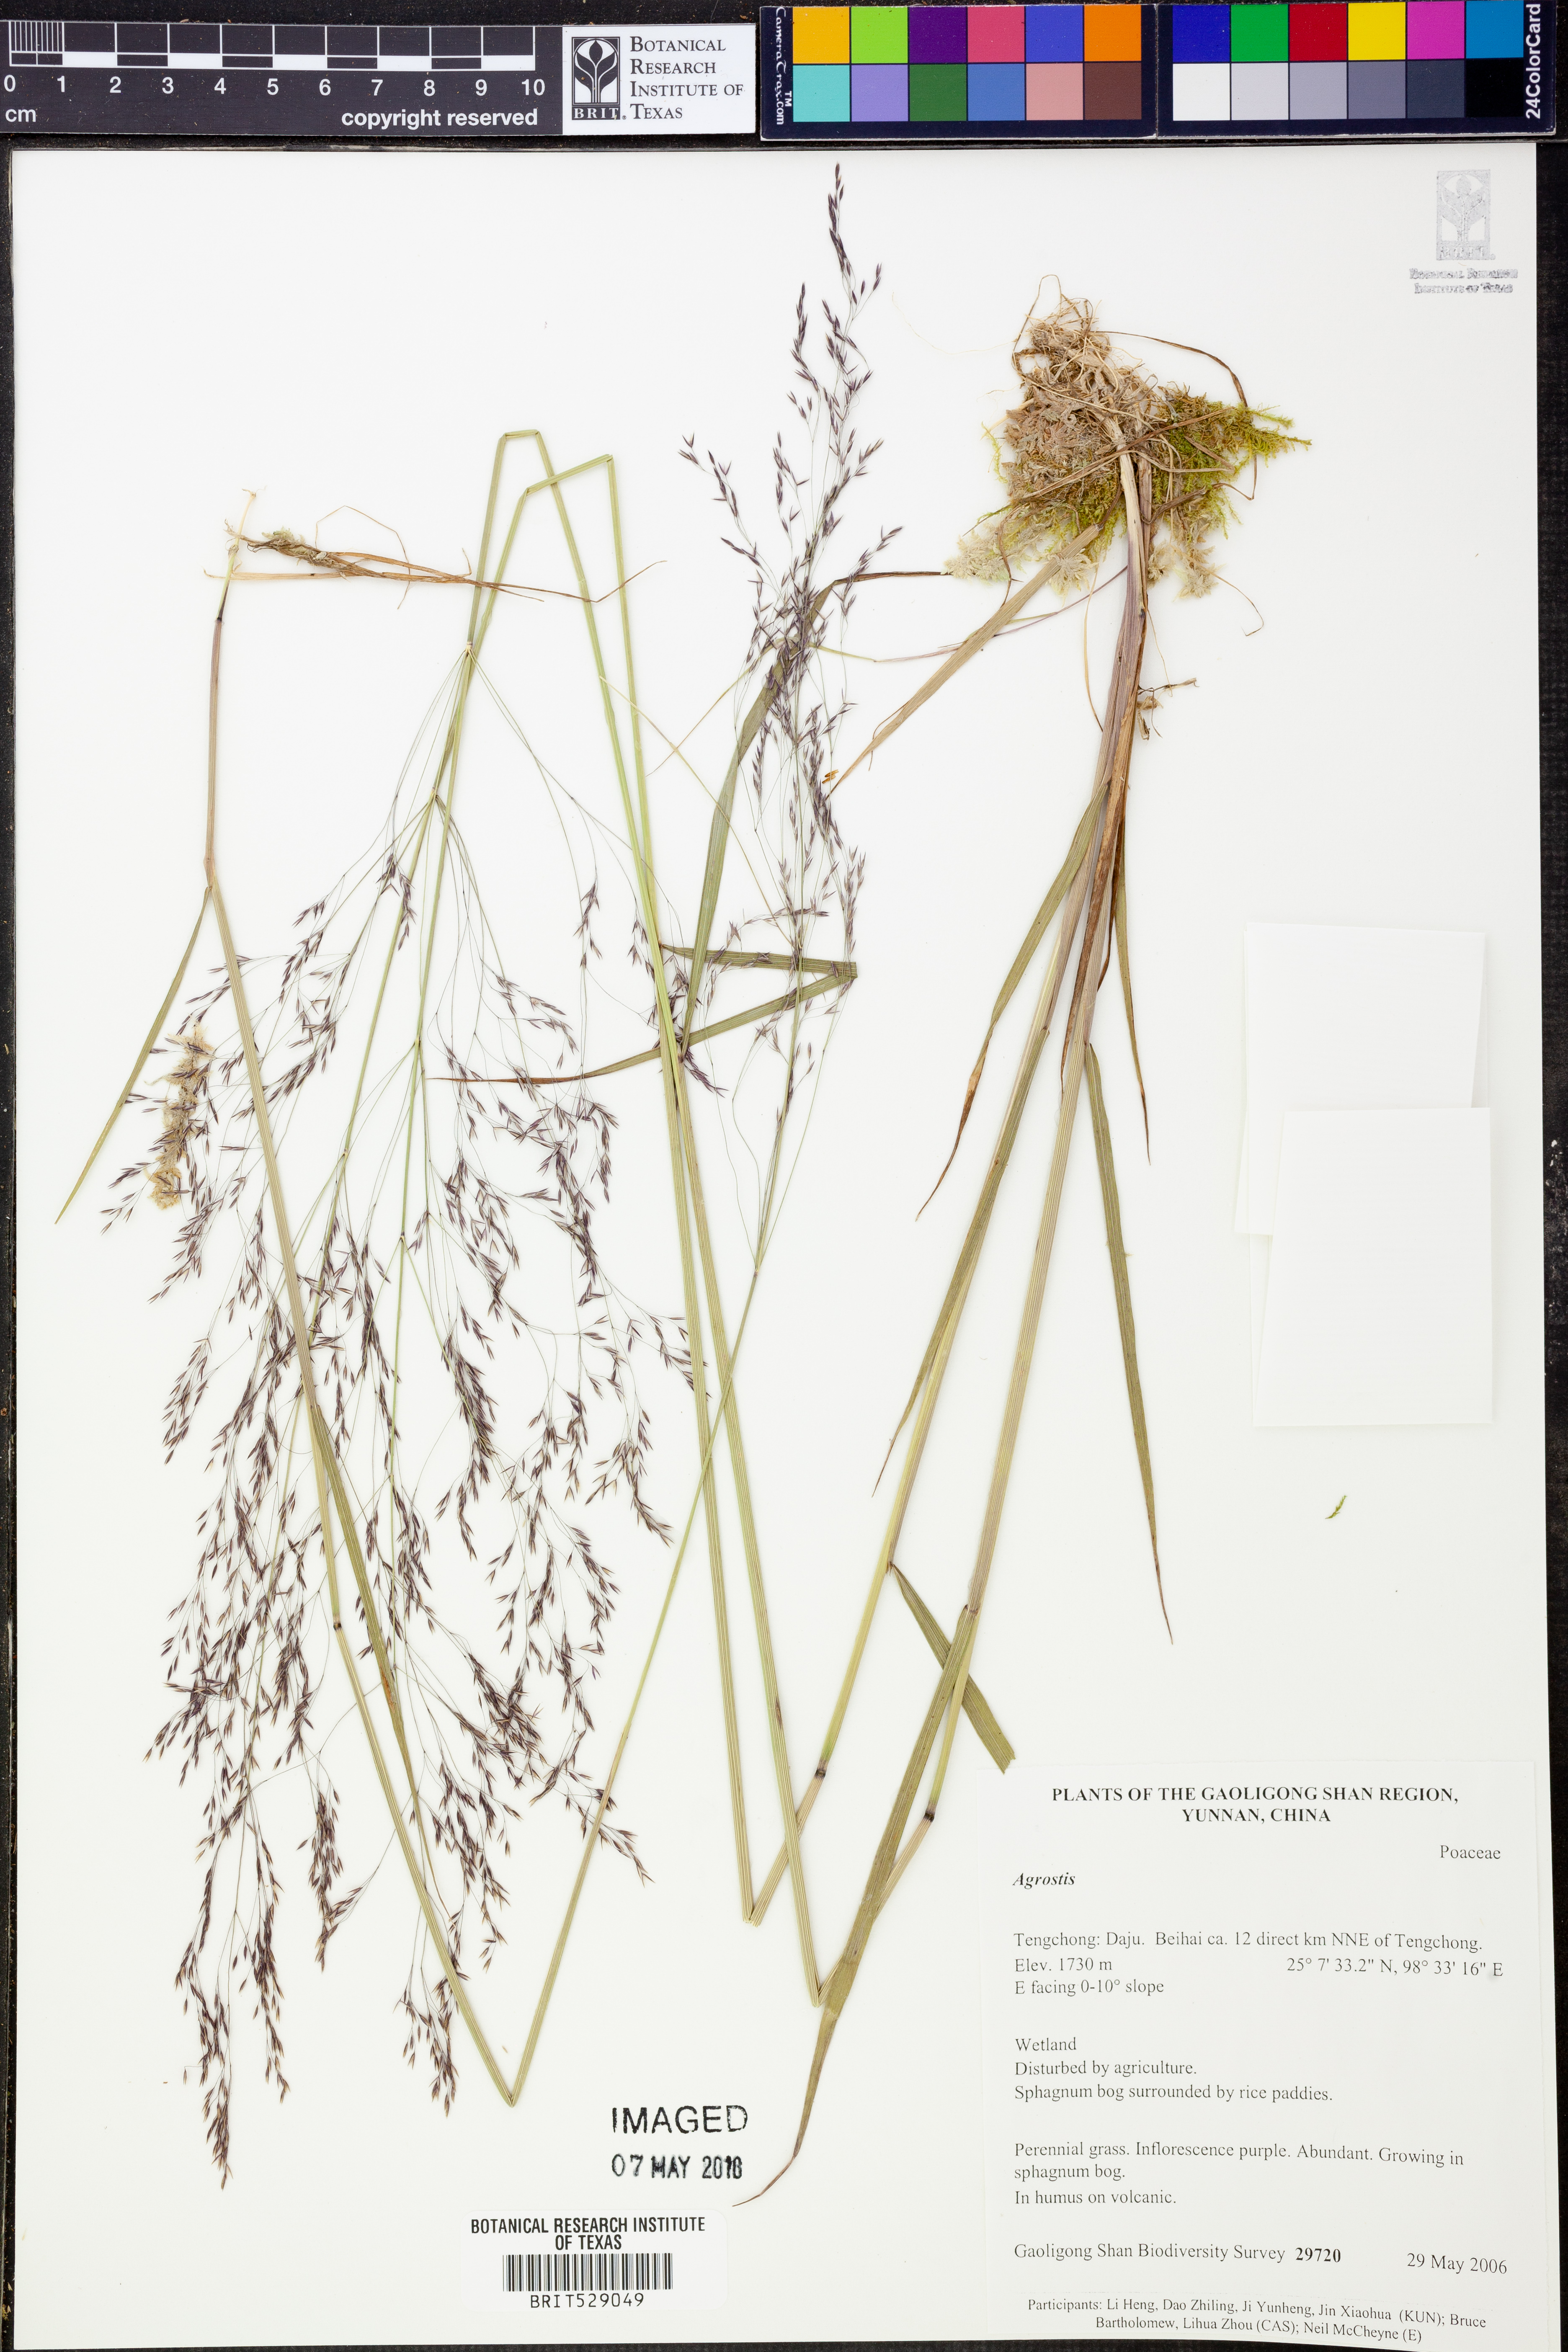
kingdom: Plantae
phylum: Tracheophyta
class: Liliopsida
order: Poales
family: Poaceae
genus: Agrostis
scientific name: Agrostis
